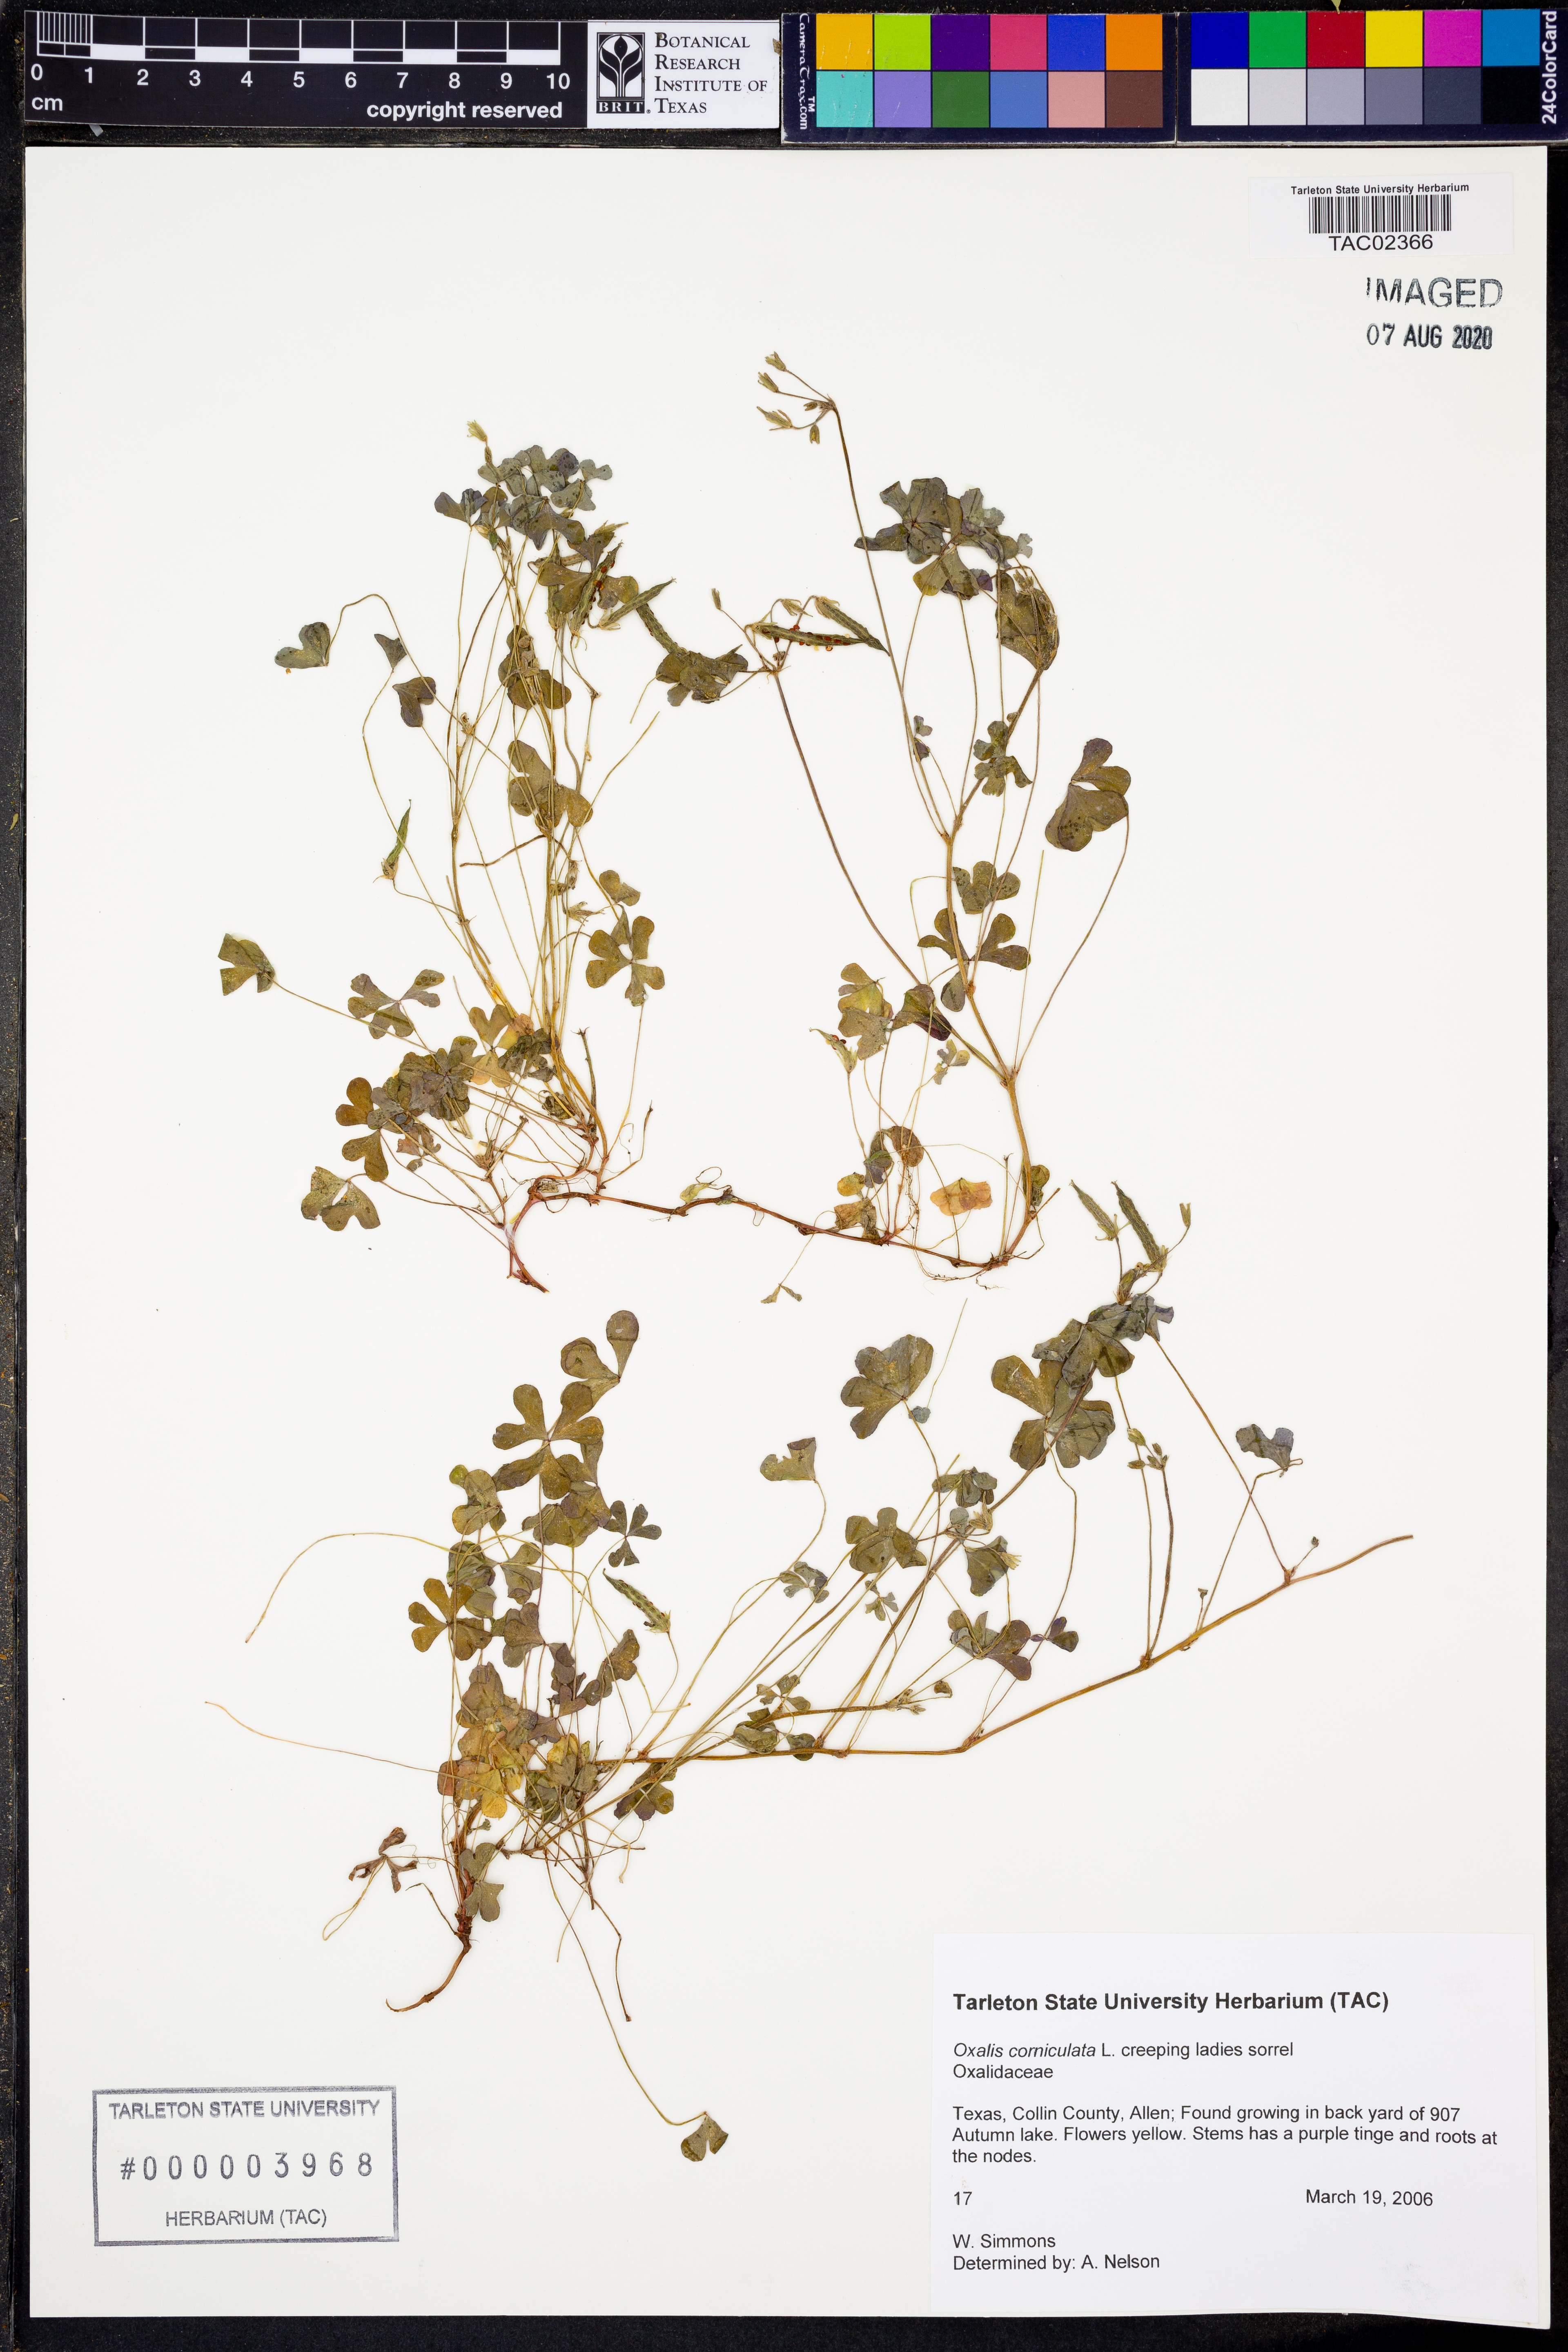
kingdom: Plantae
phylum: Tracheophyta
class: Magnoliopsida
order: Oxalidales
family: Oxalidaceae
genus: Oxalis
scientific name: Oxalis corniculata
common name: Procumbent yellow-sorrel
